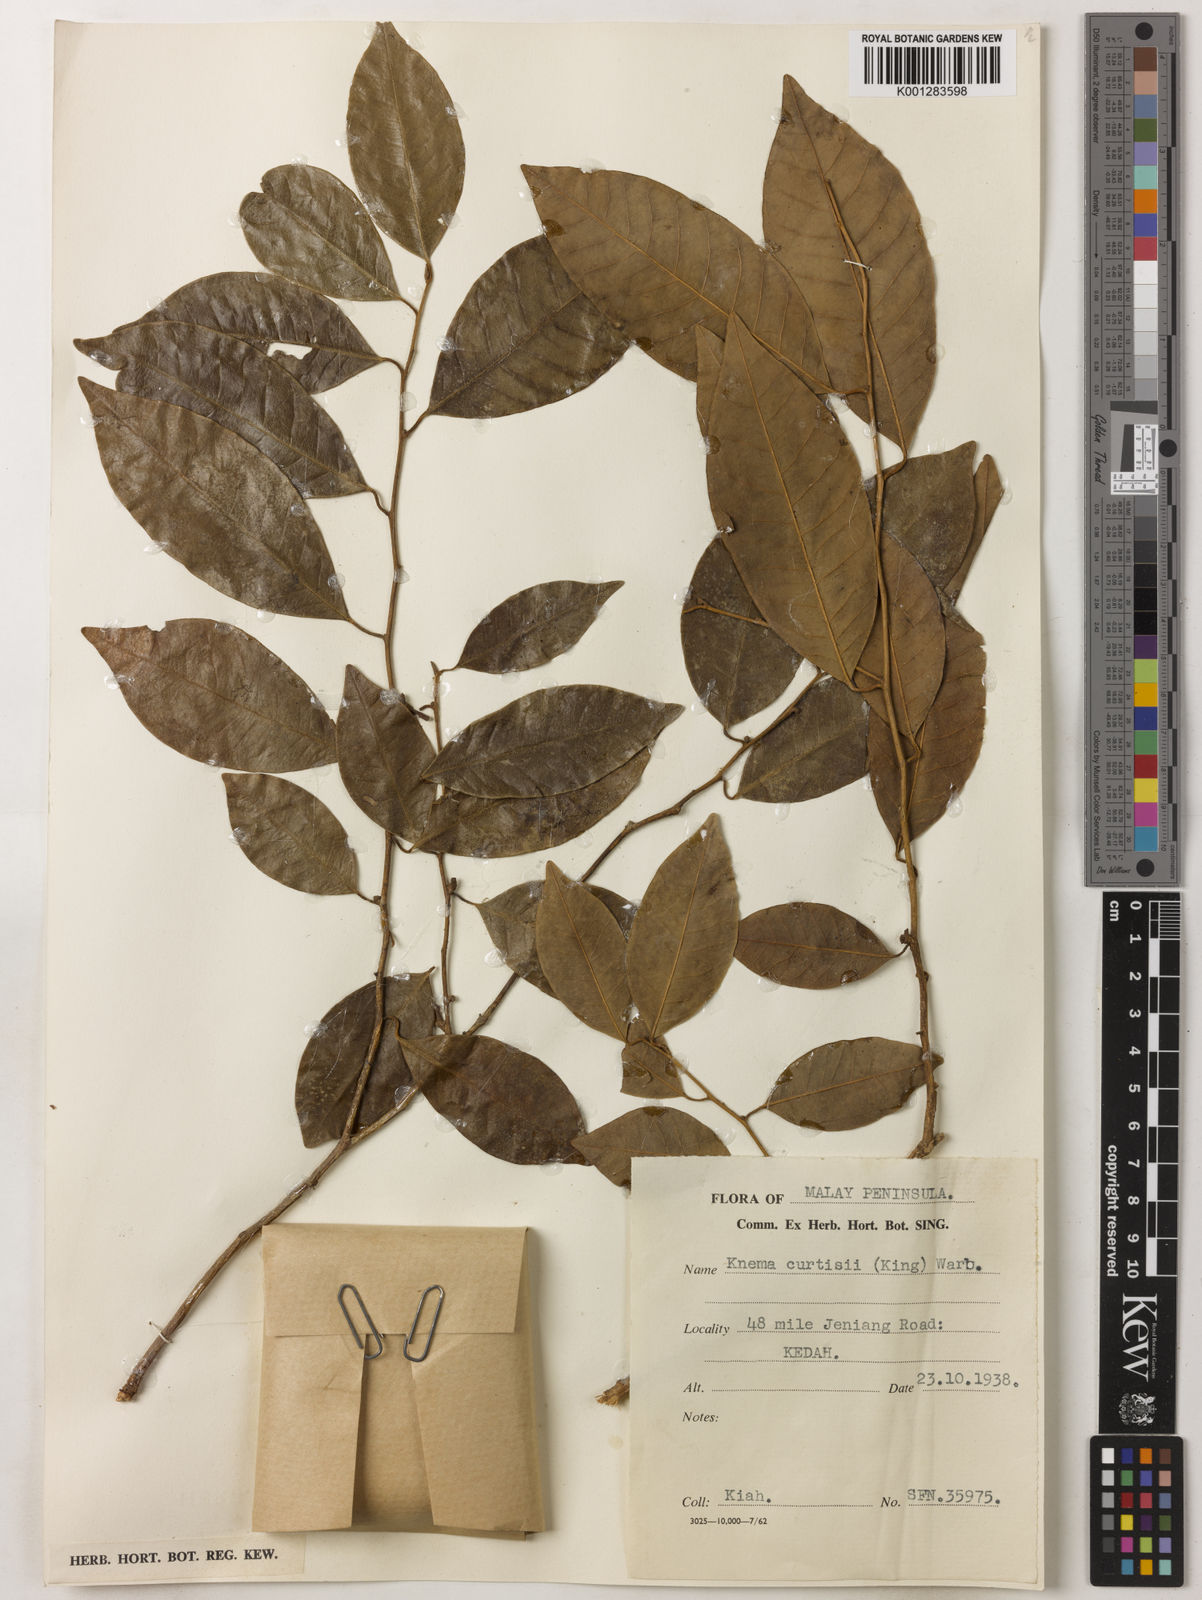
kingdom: Plantae
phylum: Tracheophyta
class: Magnoliopsida
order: Magnoliales
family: Myristicaceae
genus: Knema
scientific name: Knema curtisii
